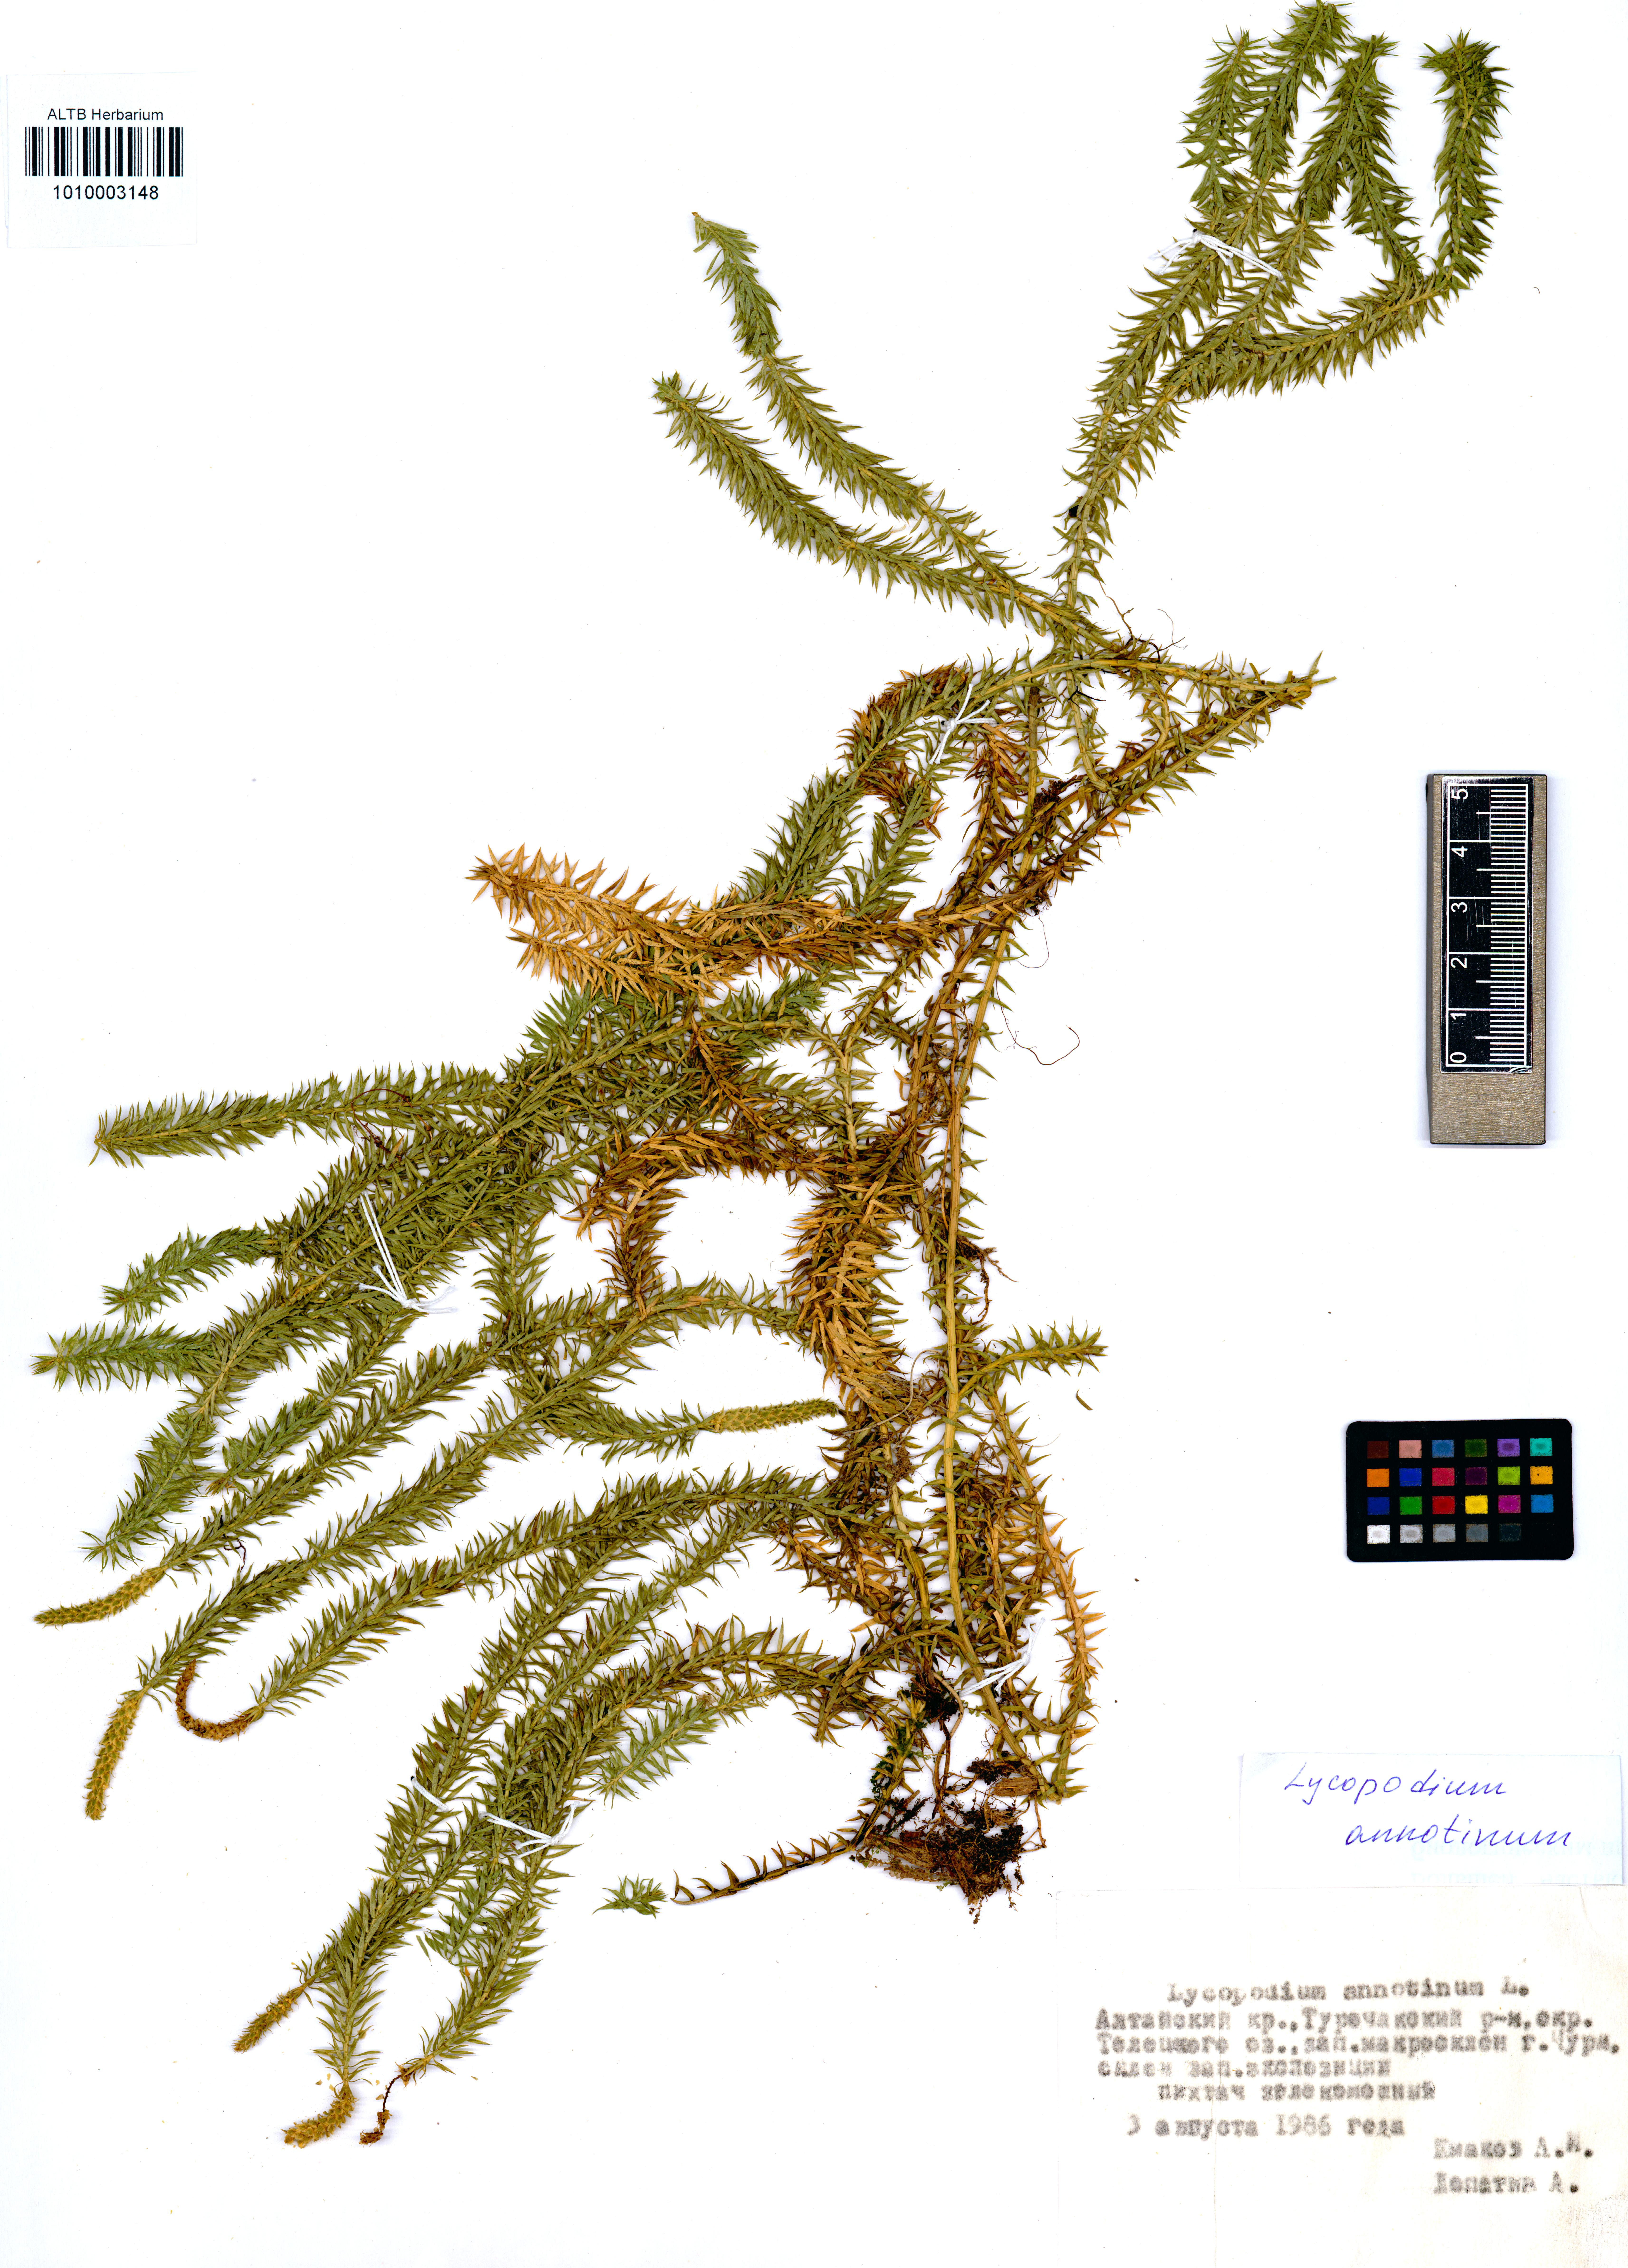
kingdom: Plantae
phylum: Tracheophyta
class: Lycopodiopsida
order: Lycopodiales
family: Lycopodiaceae
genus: Spinulum
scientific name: Spinulum annotinum
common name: Interrupted club-moss
